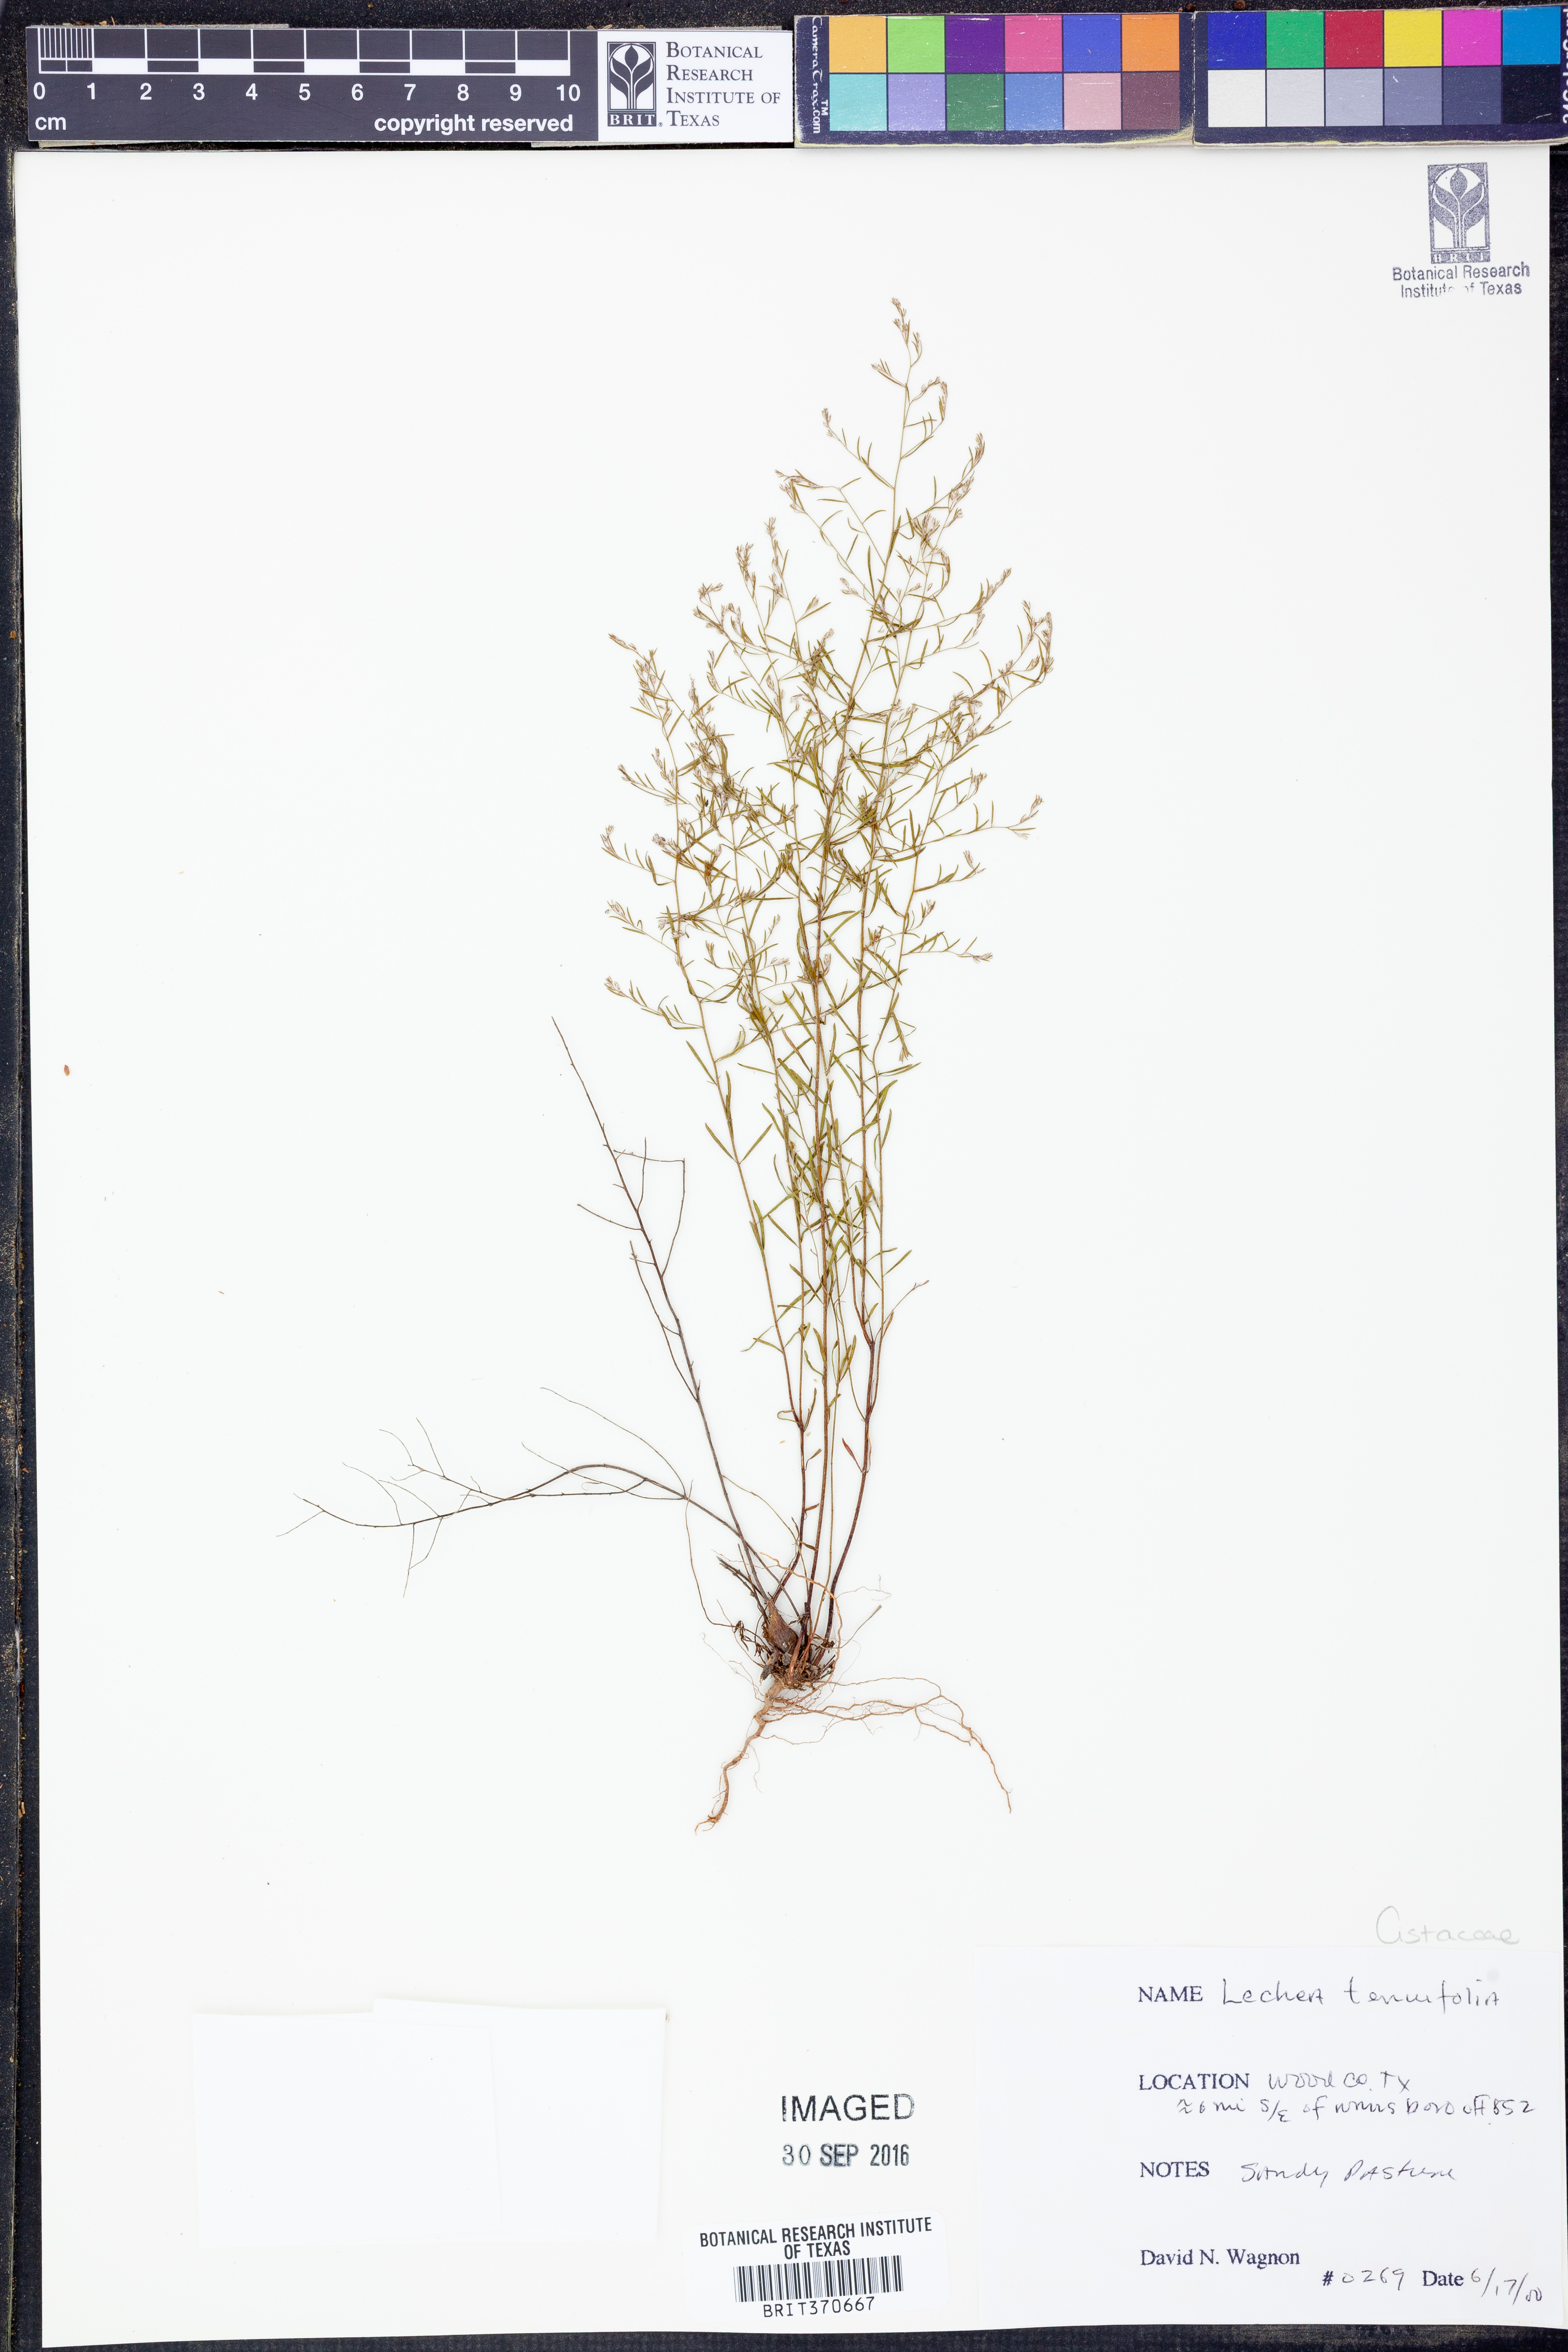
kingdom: Plantae
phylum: Tracheophyta
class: Magnoliopsida
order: Malvales
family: Cistaceae
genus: Lechea
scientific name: Lechea tenuifolia
